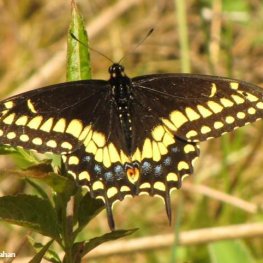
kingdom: Animalia
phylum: Arthropoda
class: Insecta
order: Lepidoptera
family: Papilionidae
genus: Papilio
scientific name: Papilio polyxenes
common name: Black Swallowtail
